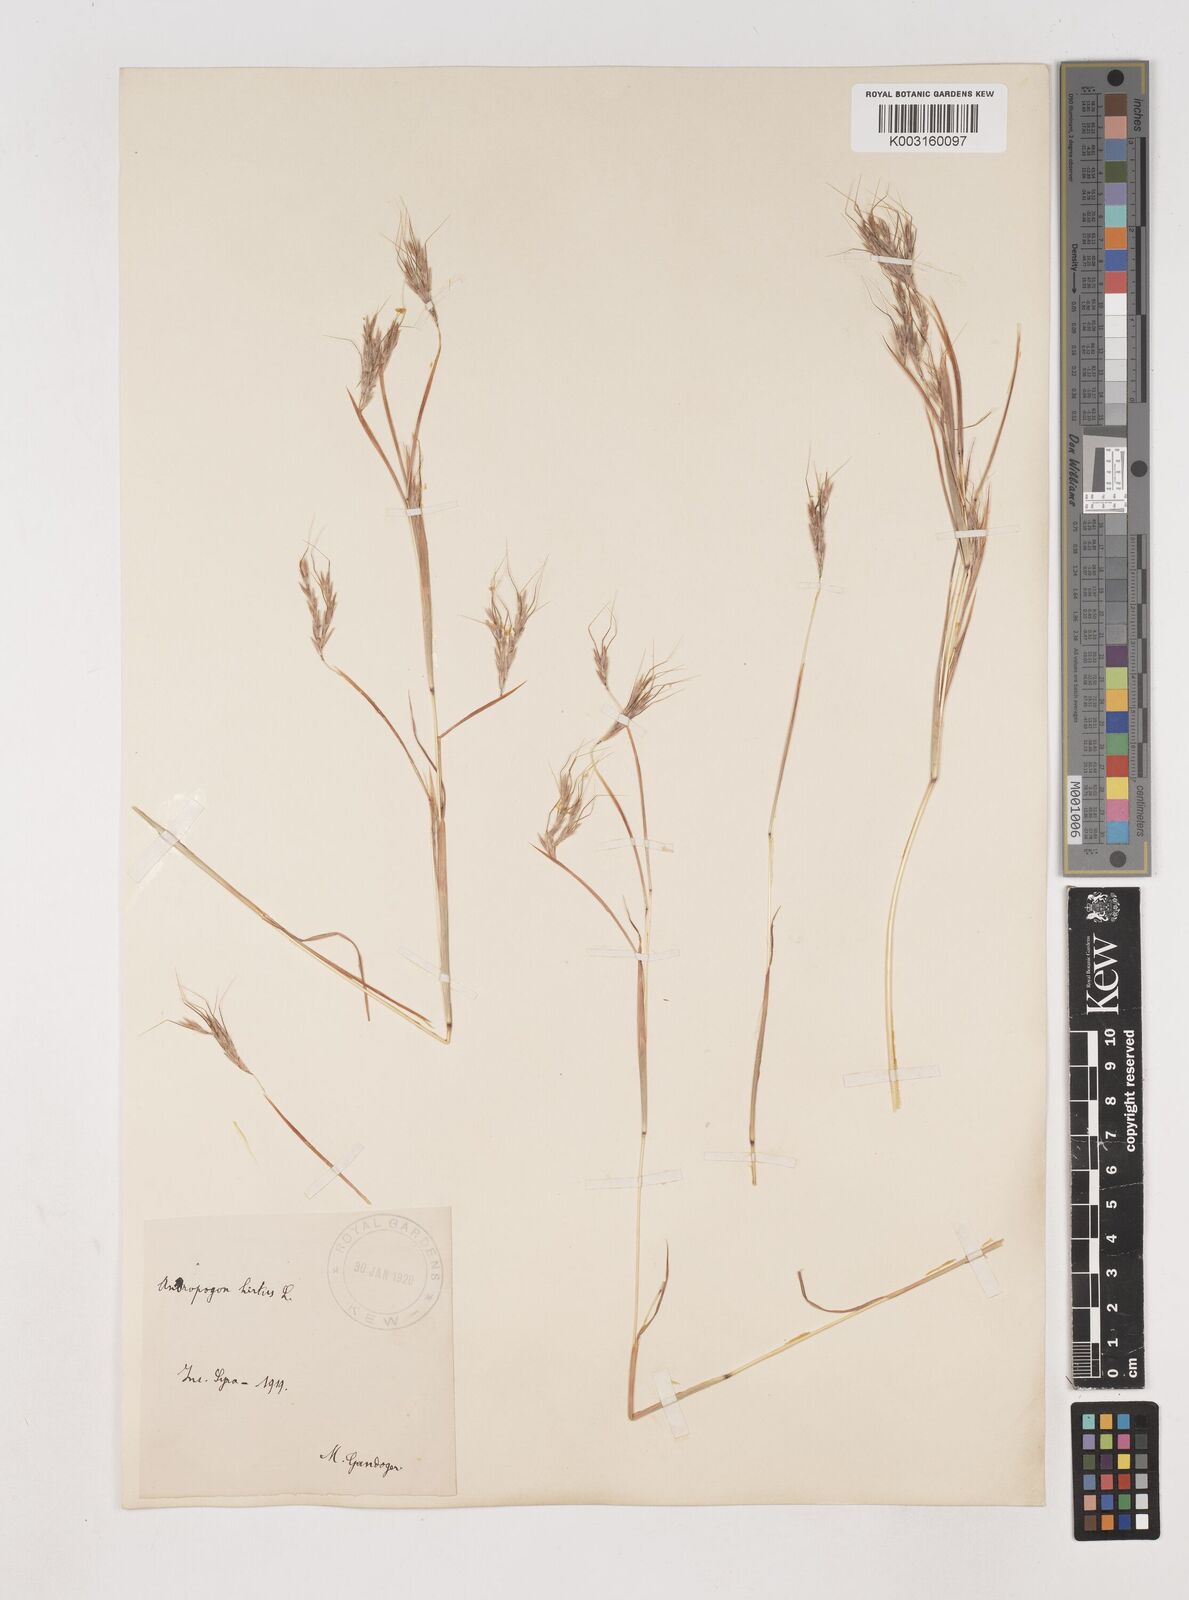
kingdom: Plantae
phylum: Tracheophyta
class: Liliopsida
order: Poales
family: Poaceae
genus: Hyparrhenia
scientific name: Hyparrhenia hirta
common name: Thatching grass
